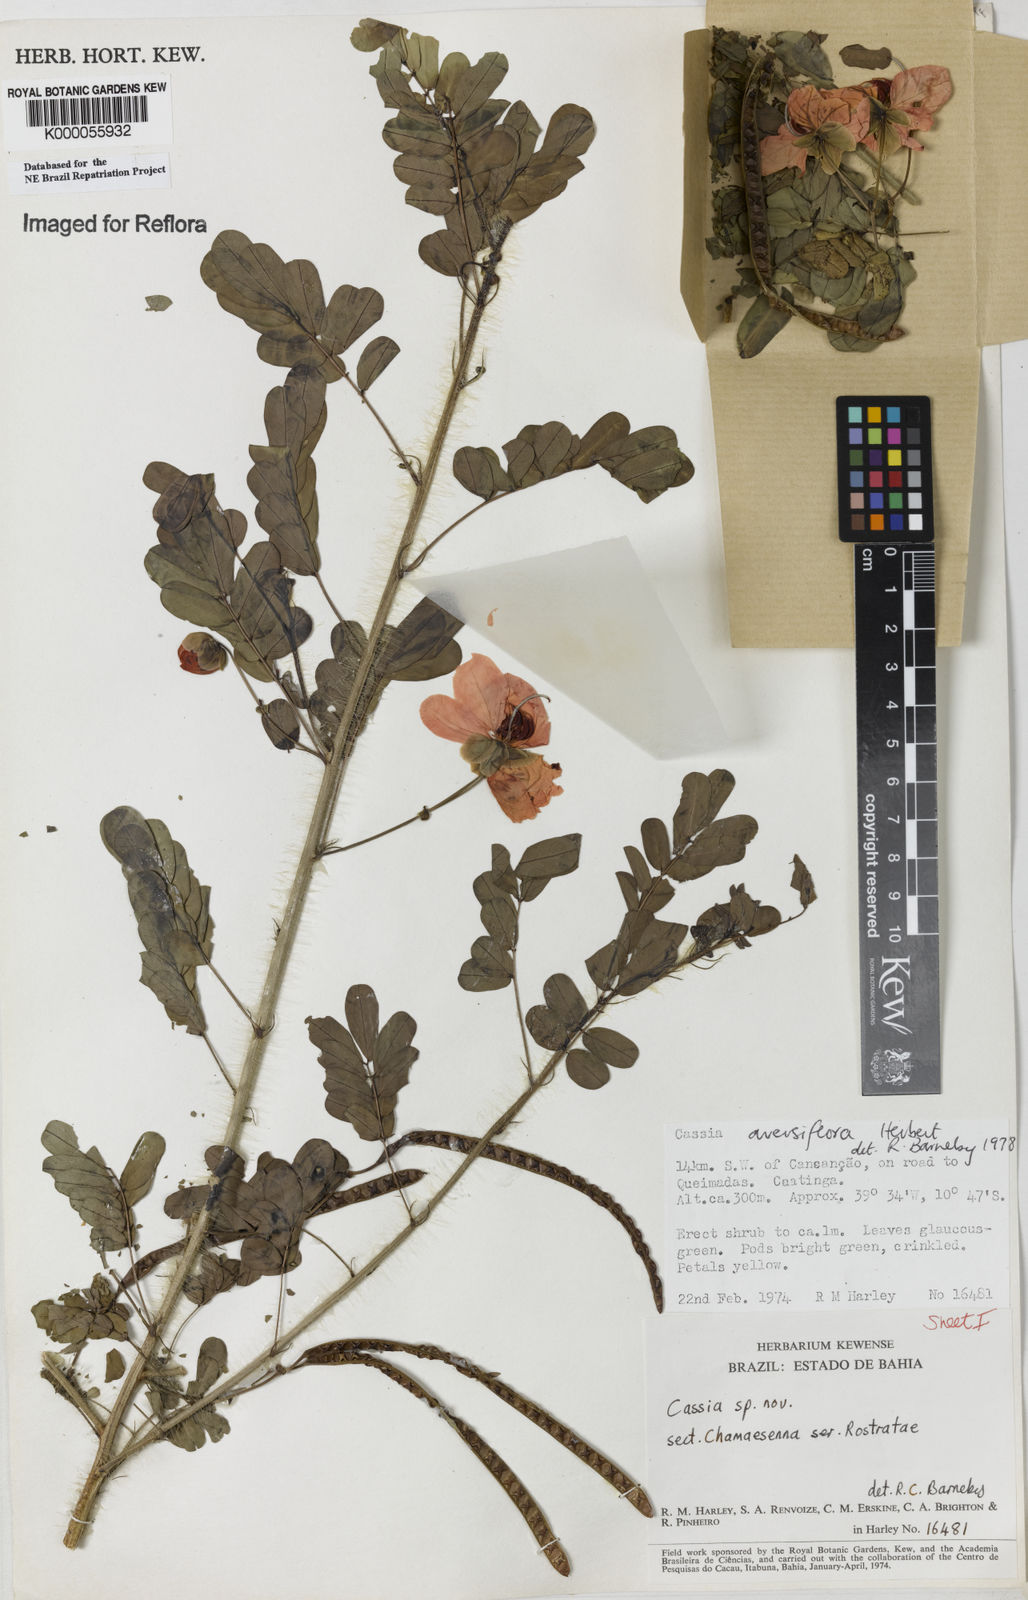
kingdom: Plantae
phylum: Tracheophyta
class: Magnoliopsida
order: Fabales
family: Fabaceae
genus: Senna
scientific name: Senna aversiflora
